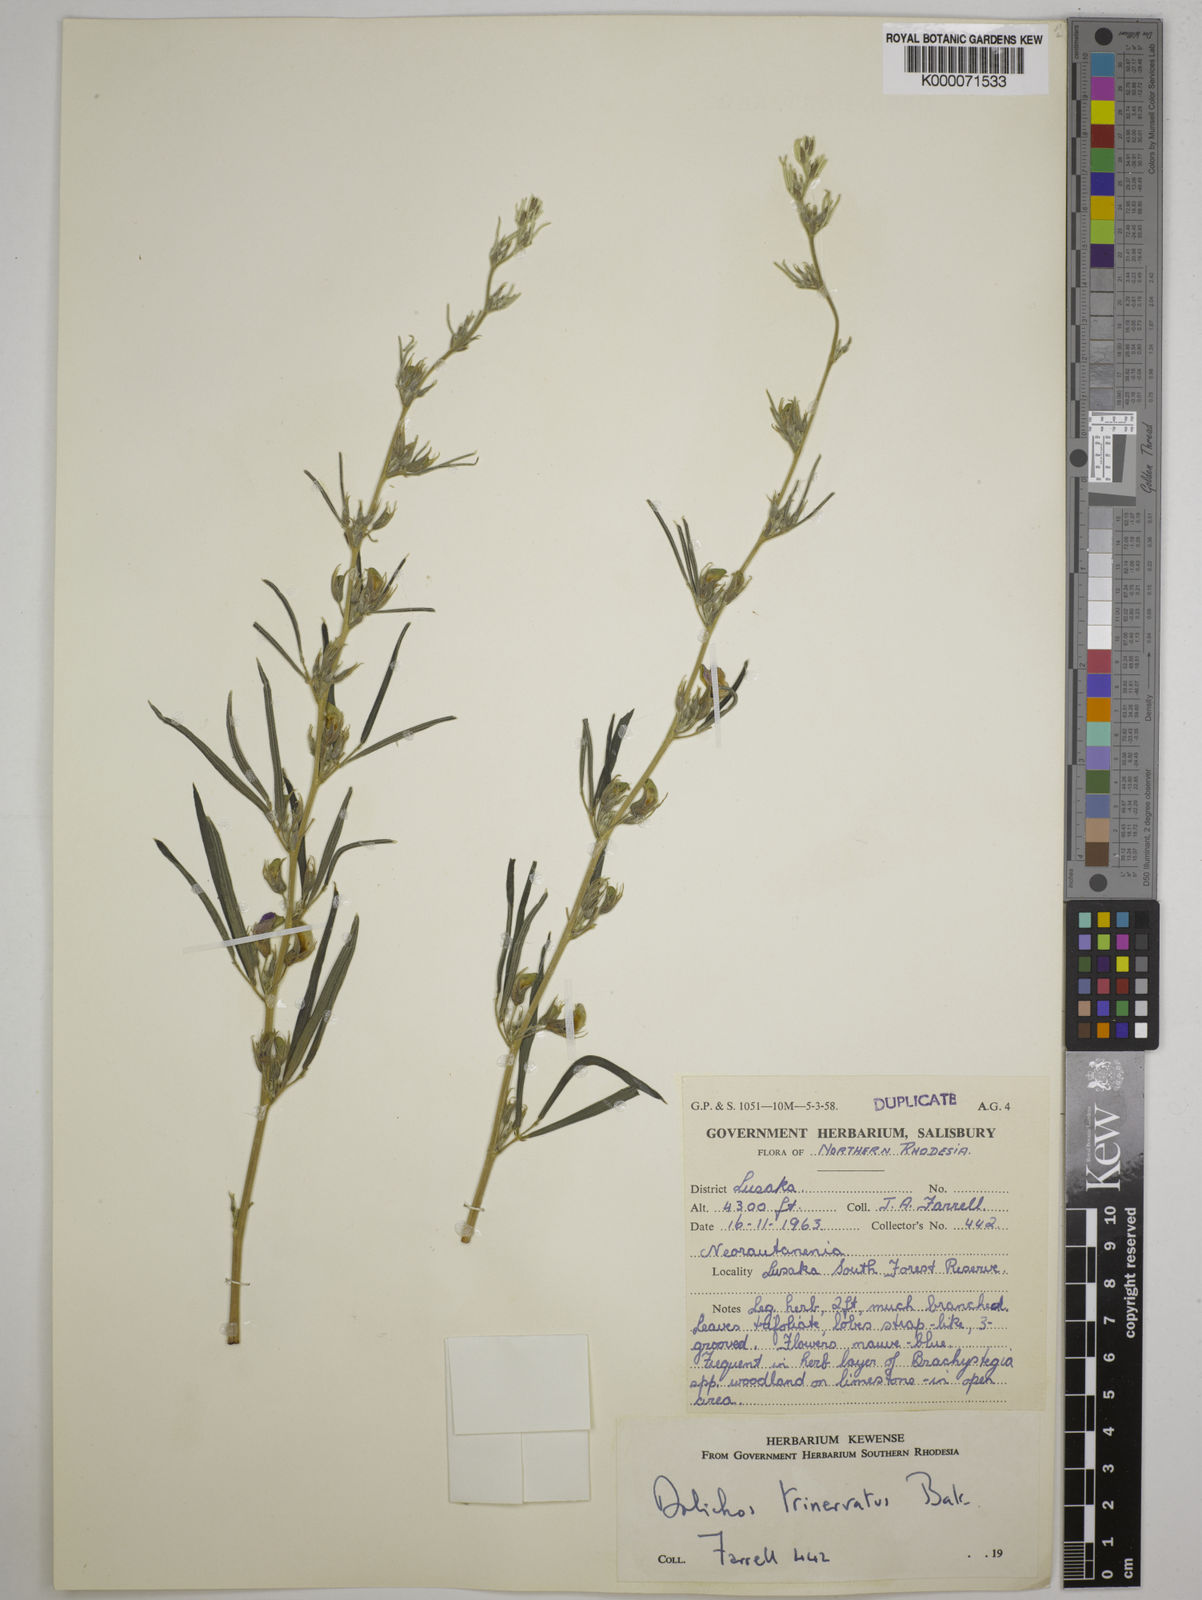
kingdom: Plantae
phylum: Tracheophyta
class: Magnoliopsida
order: Fabales
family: Fabaceae
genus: Dolichos
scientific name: Dolichos trinervatus
